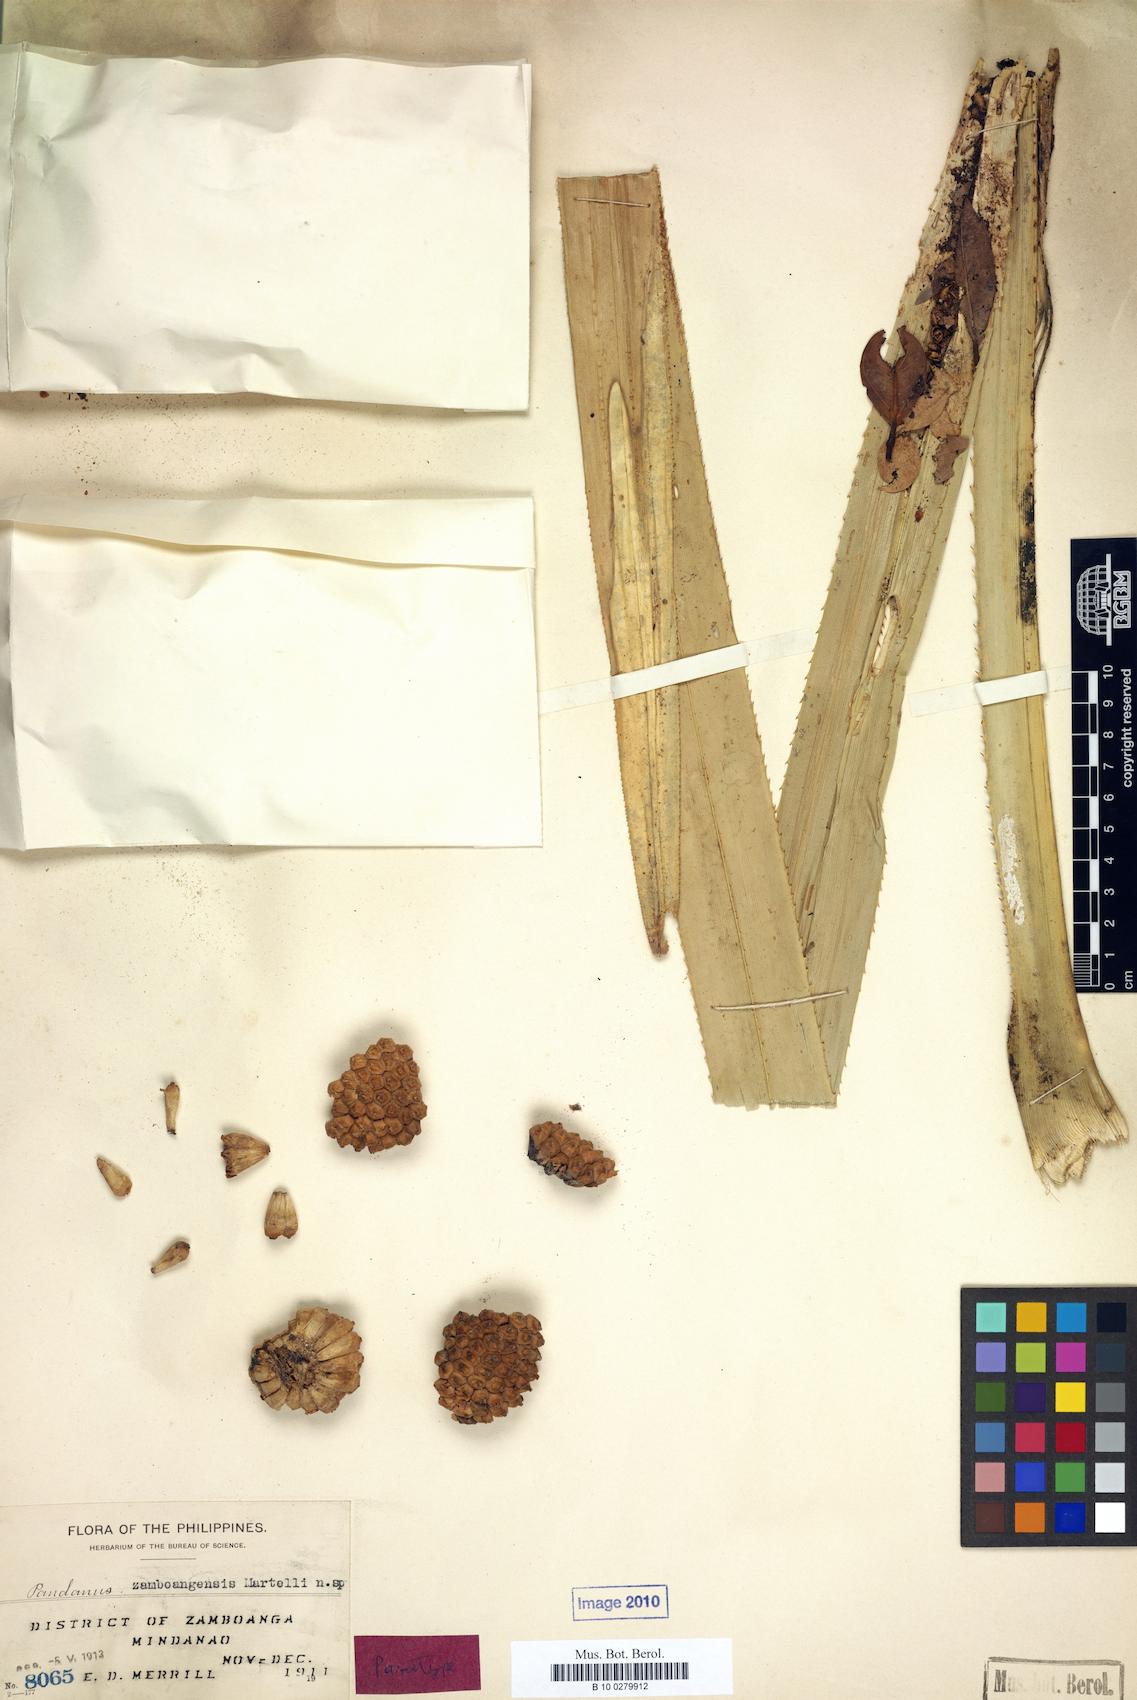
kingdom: Plantae
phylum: Tracheophyta
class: Liliopsida
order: Pandanales
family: Pandanaceae
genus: Pandanus
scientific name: Pandanus zamboangensis
